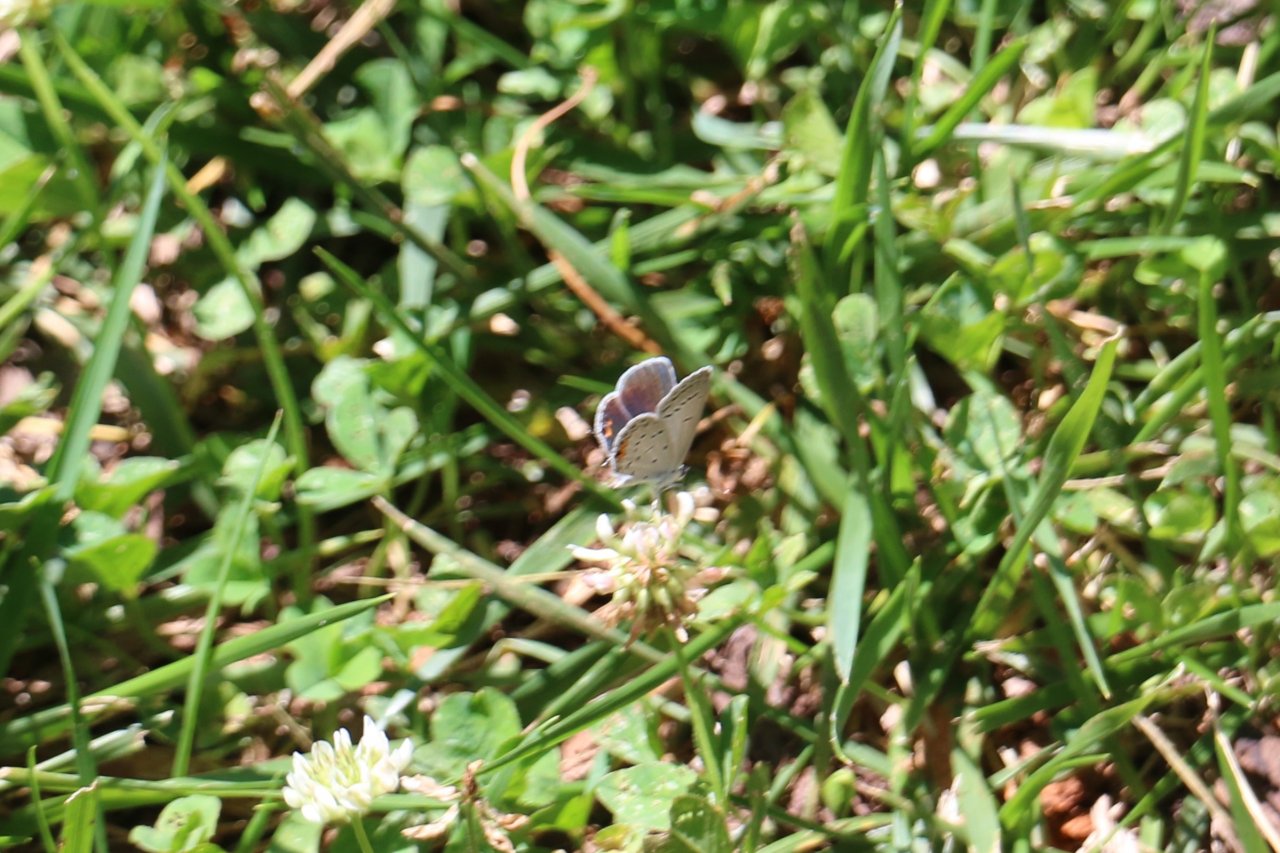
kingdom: Animalia
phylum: Arthropoda
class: Insecta
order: Lepidoptera
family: Lycaenidae
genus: Elkalyce
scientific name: Elkalyce comyntas
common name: Eastern Tailed-Blue
